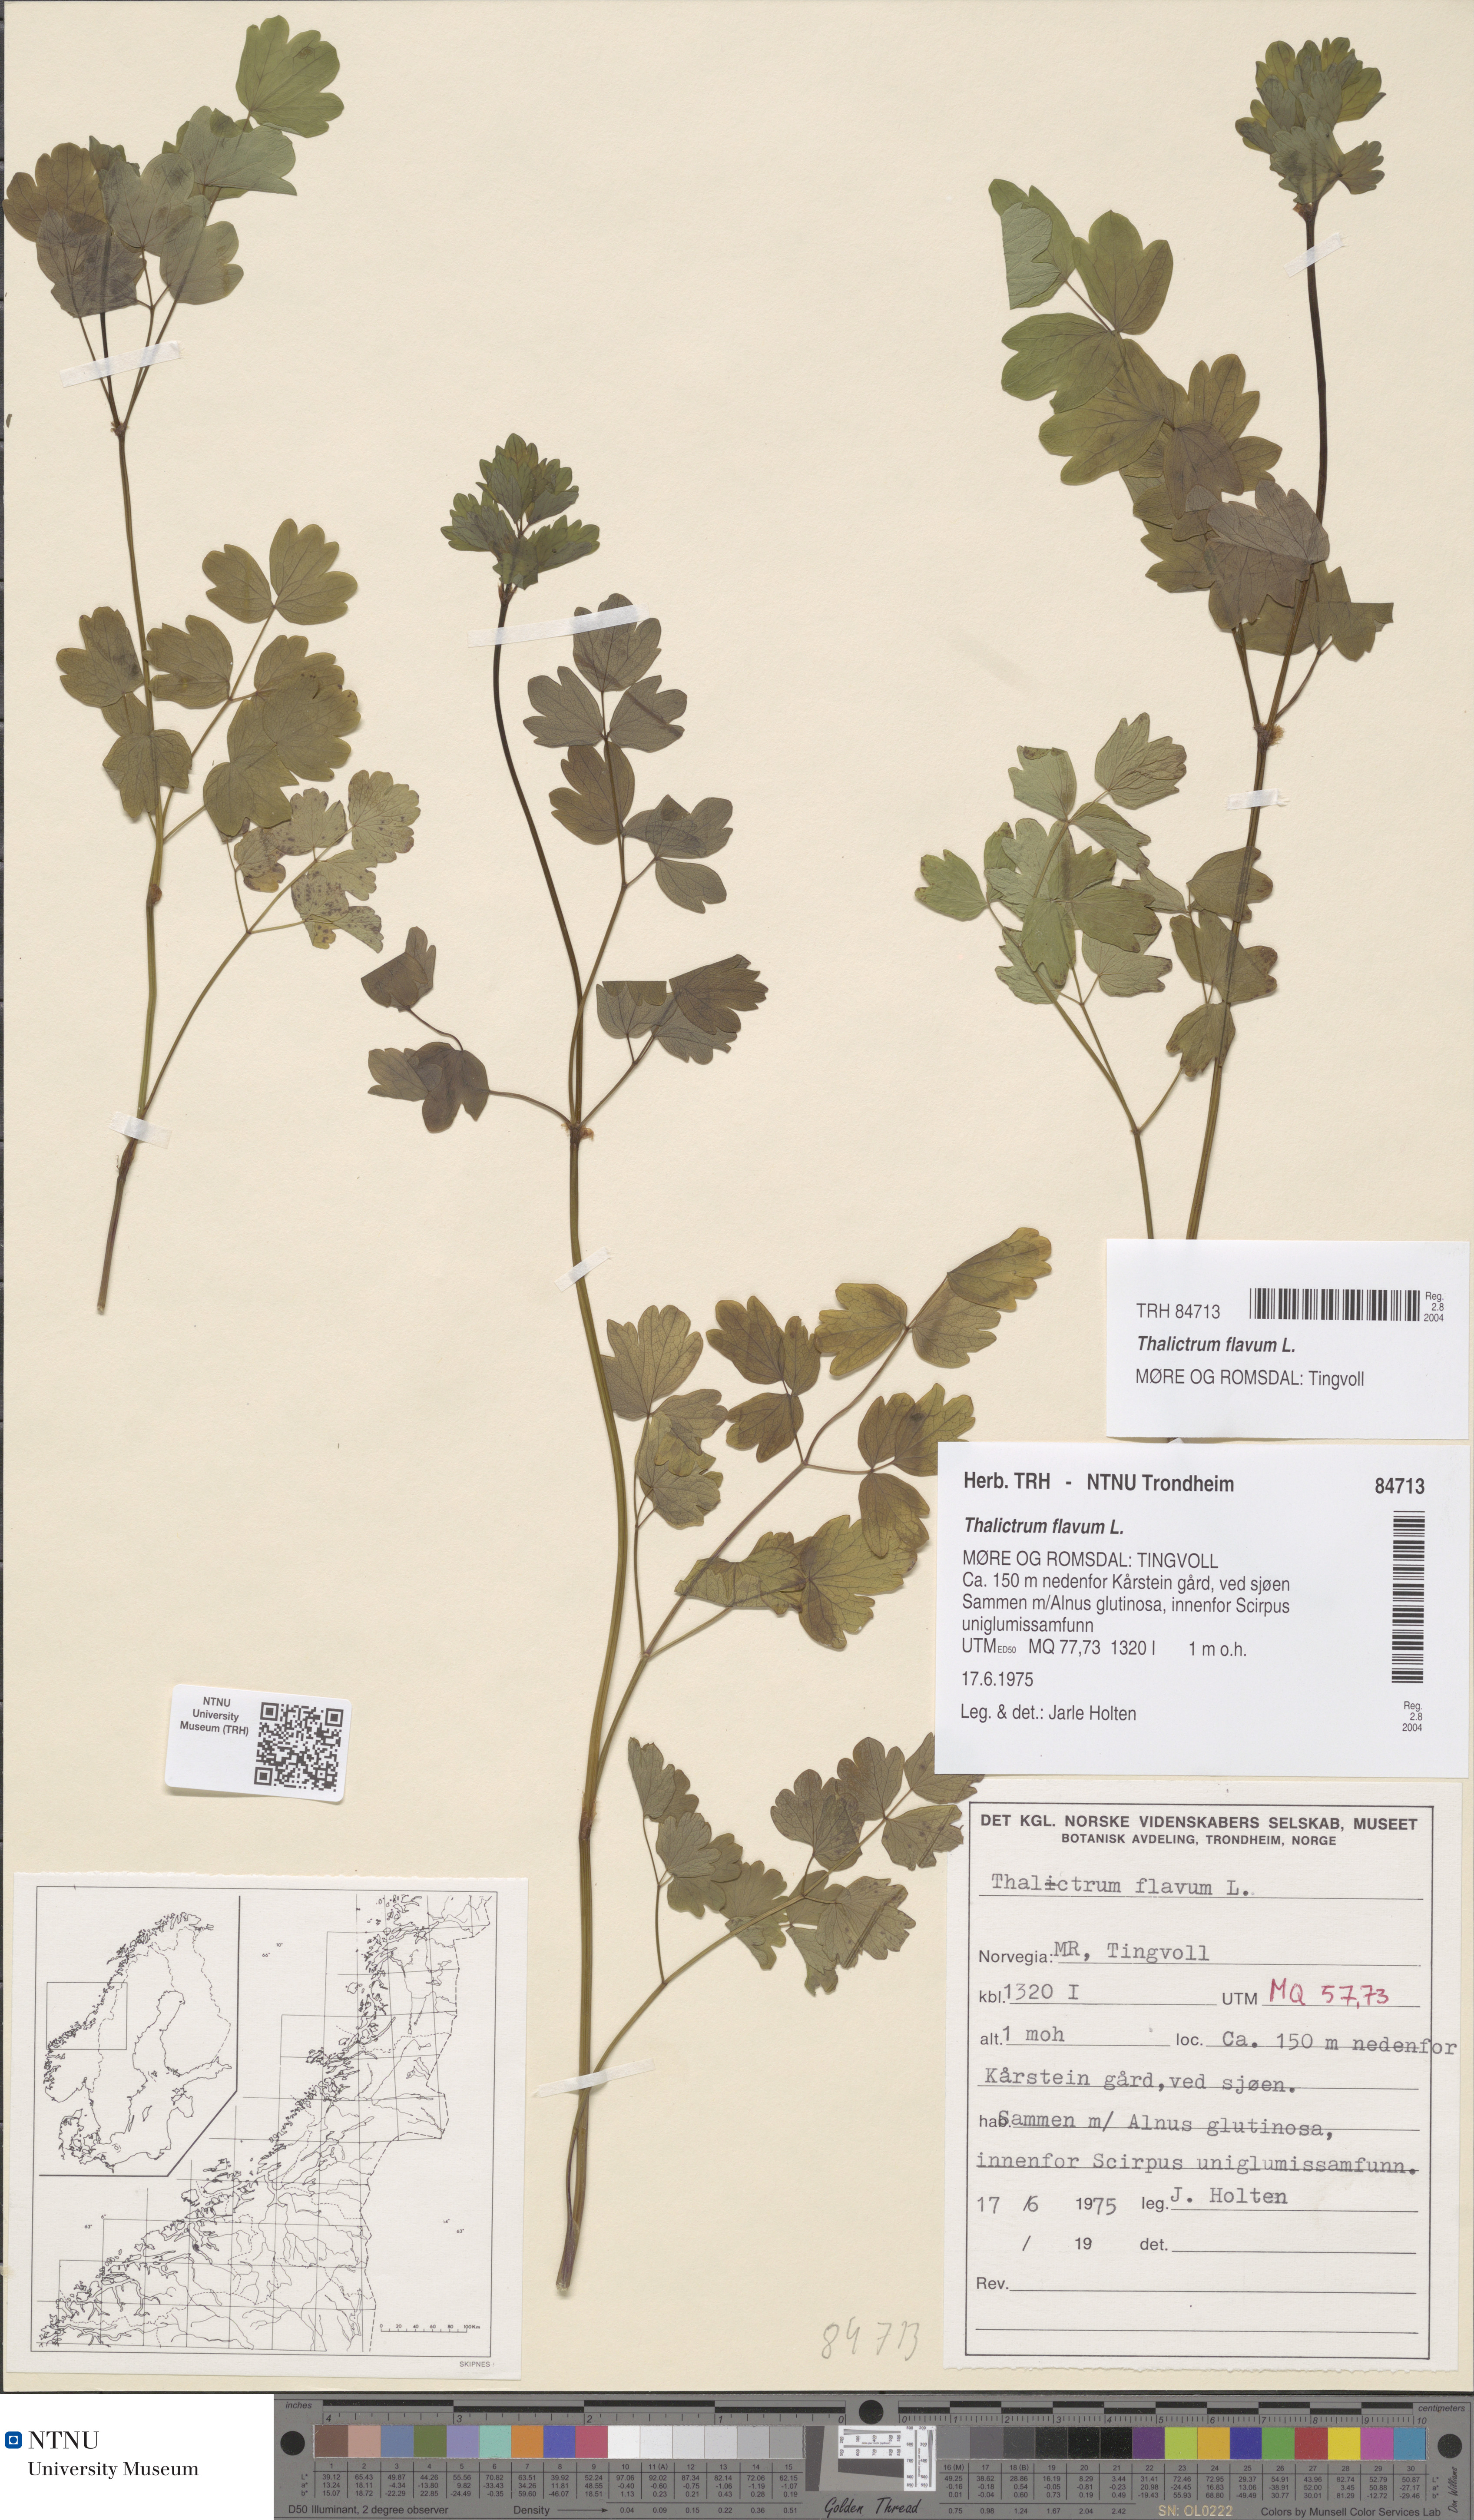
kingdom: Plantae
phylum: Tracheophyta
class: Magnoliopsida
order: Ranunculales
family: Ranunculaceae
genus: Thalictrum
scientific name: Thalictrum flavum
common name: Common meadow-rue
